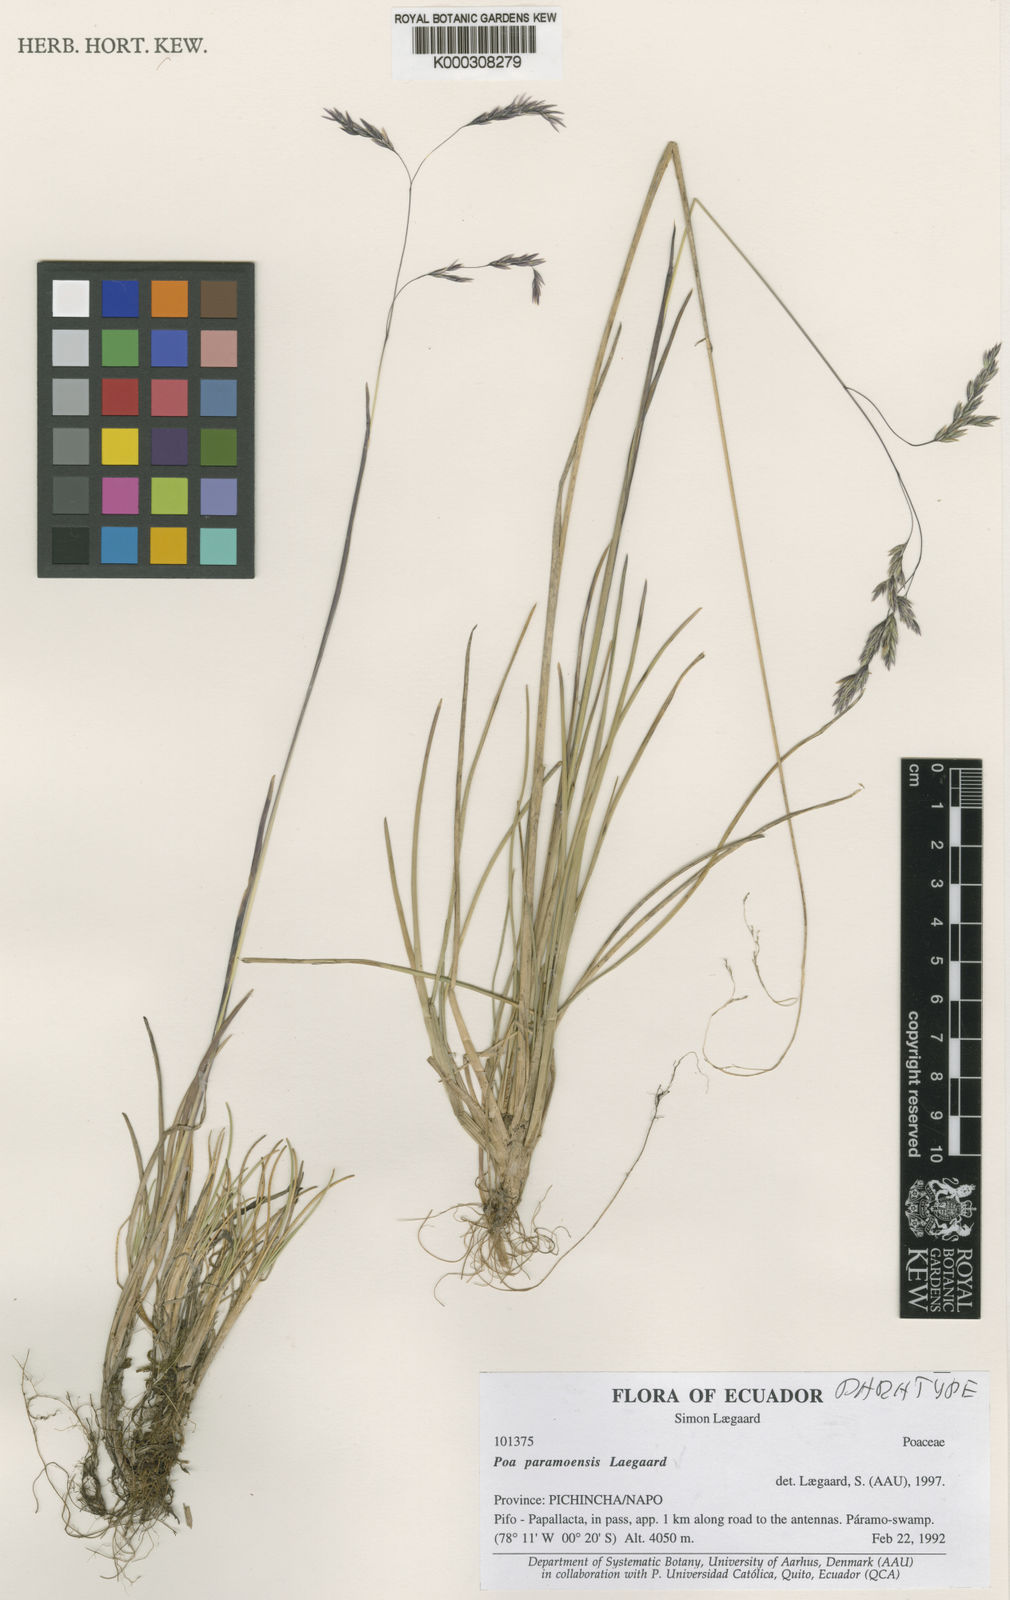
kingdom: Plantae
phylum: Tracheophyta
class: Liliopsida
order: Poales
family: Poaceae
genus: Poa
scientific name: Poa huancavelicae
